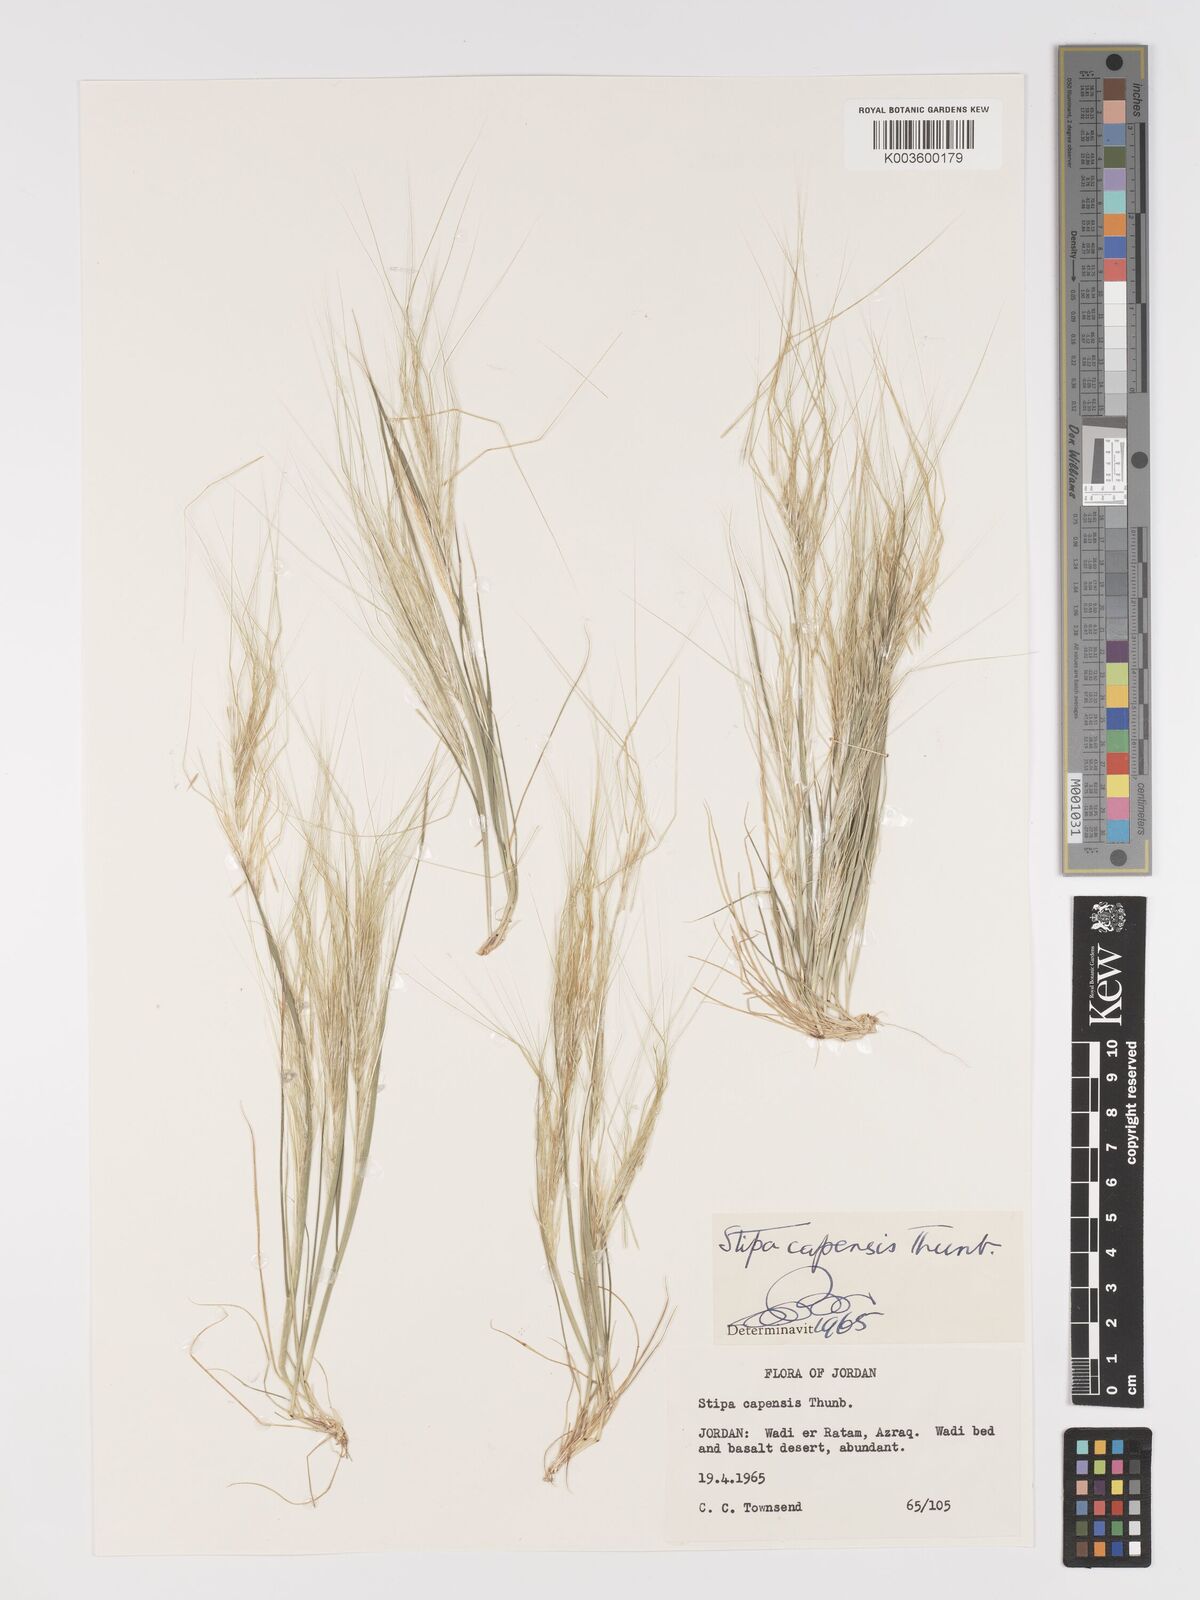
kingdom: Plantae
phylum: Tracheophyta
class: Liliopsida
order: Poales
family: Poaceae
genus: Stipellula
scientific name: Stipellula capensis
